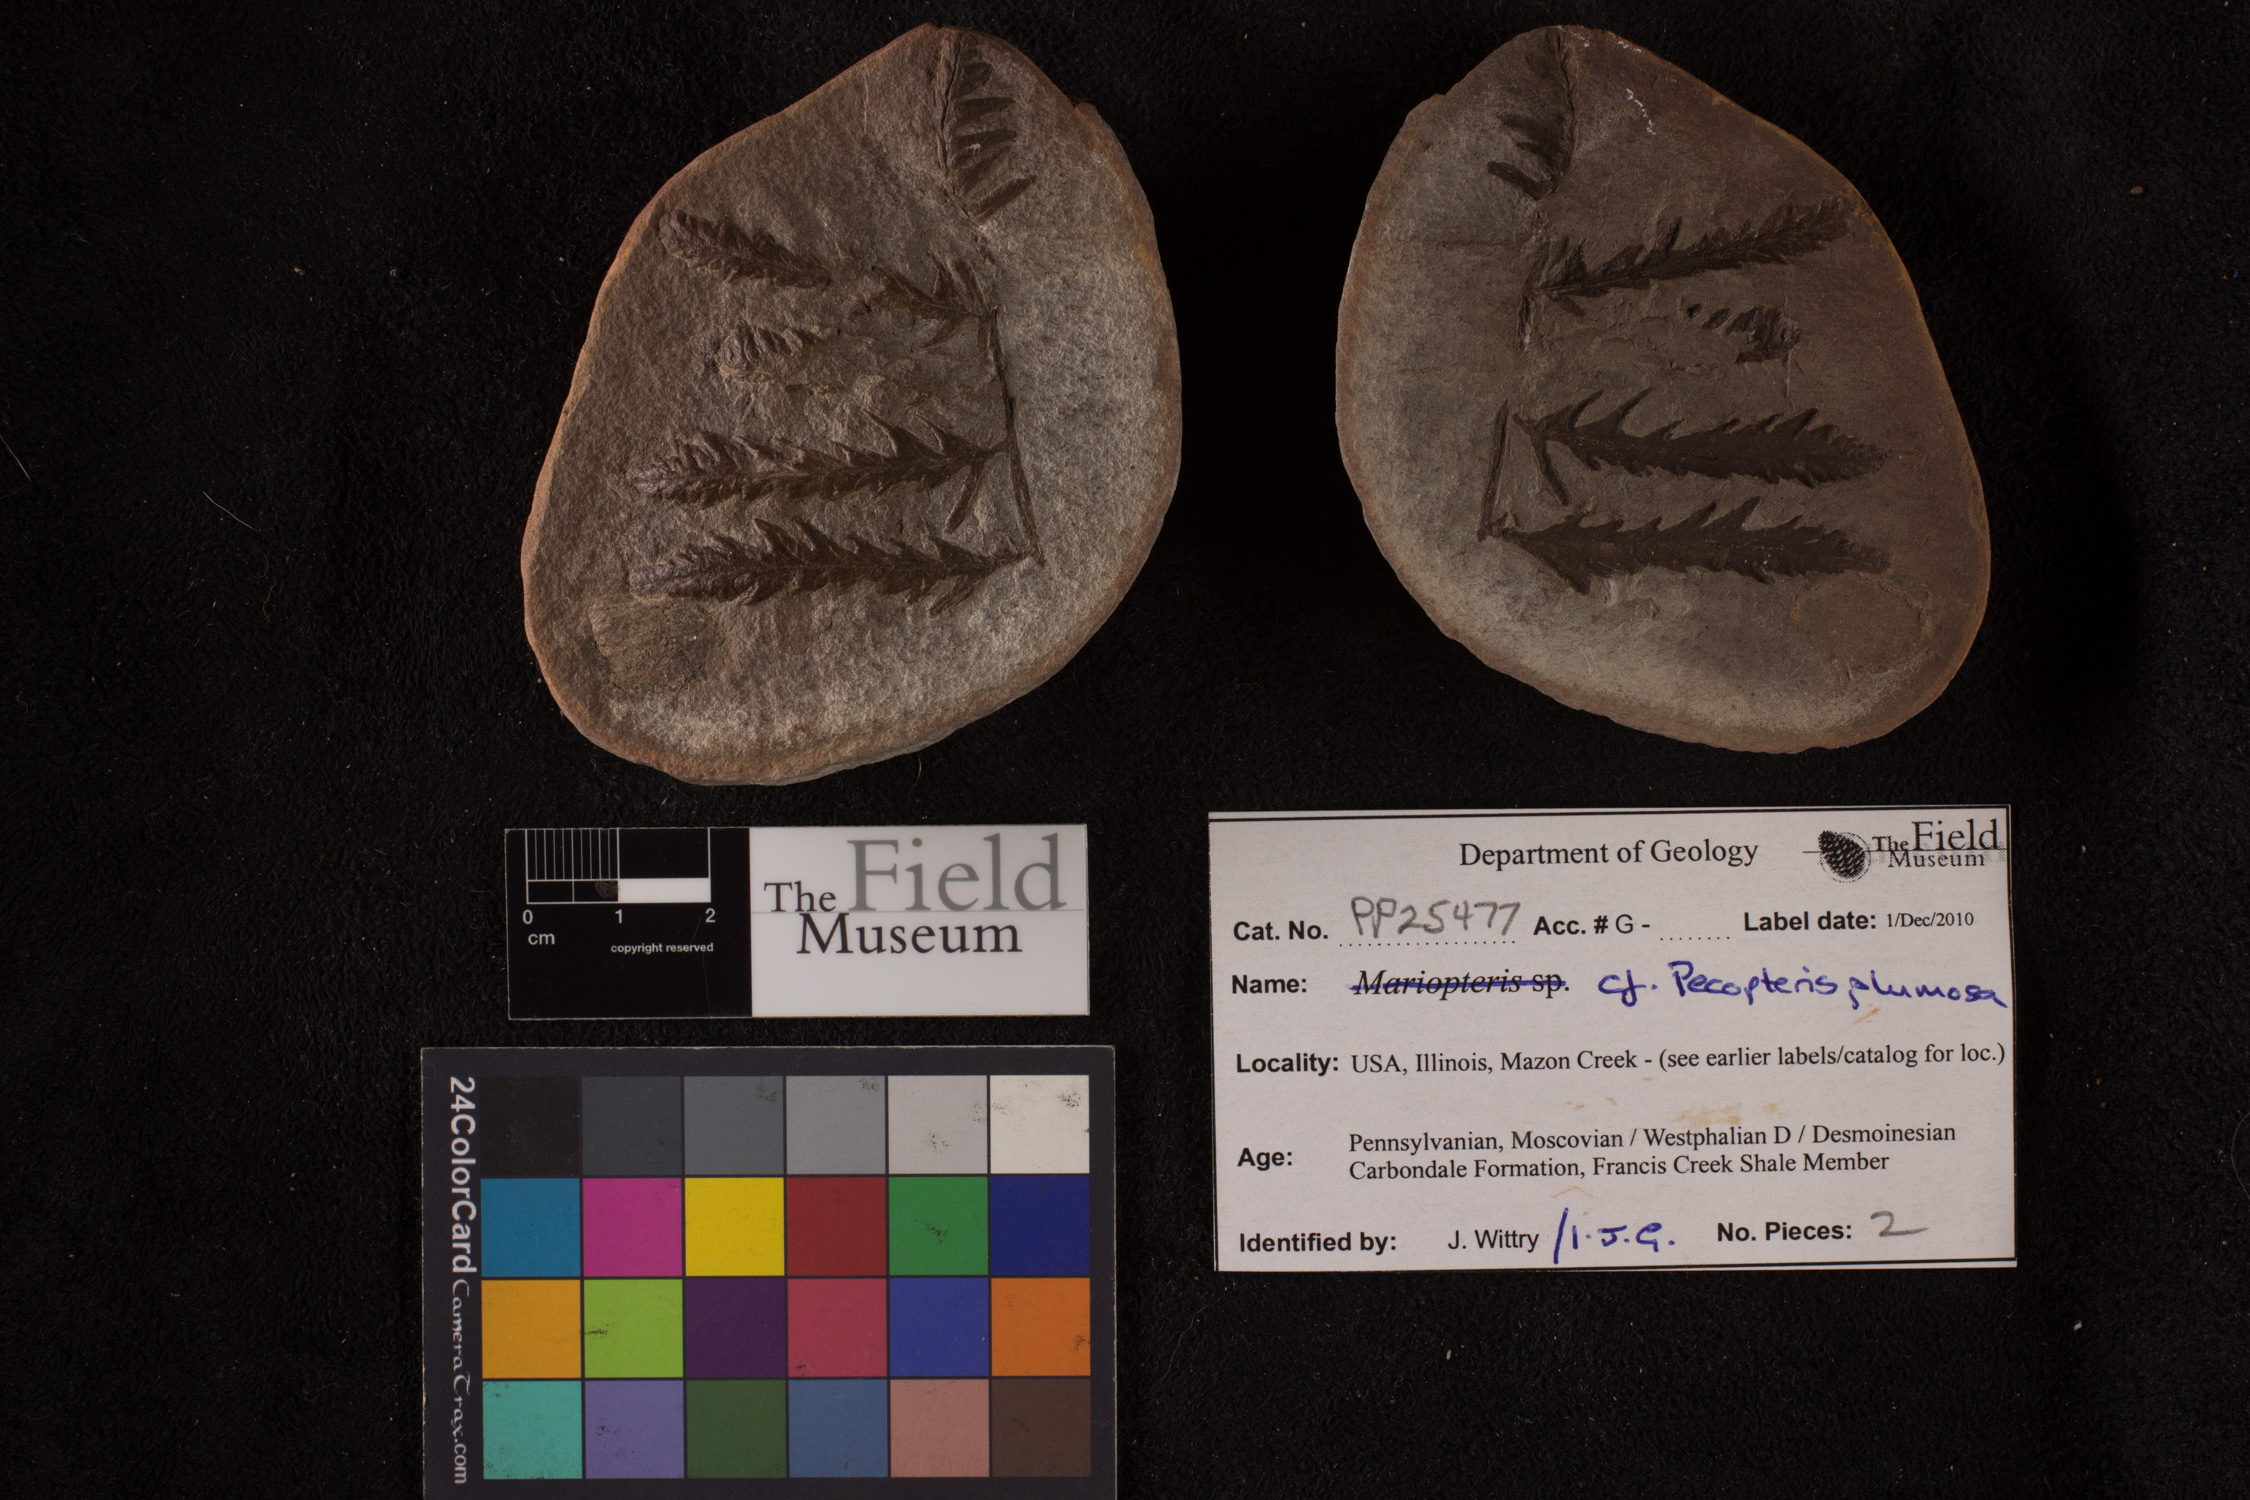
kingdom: Plantae
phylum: Tracheophyta
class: Polypodiopsida
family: Tedeleaceae
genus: Senftenbergia
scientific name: Senftenbergia
